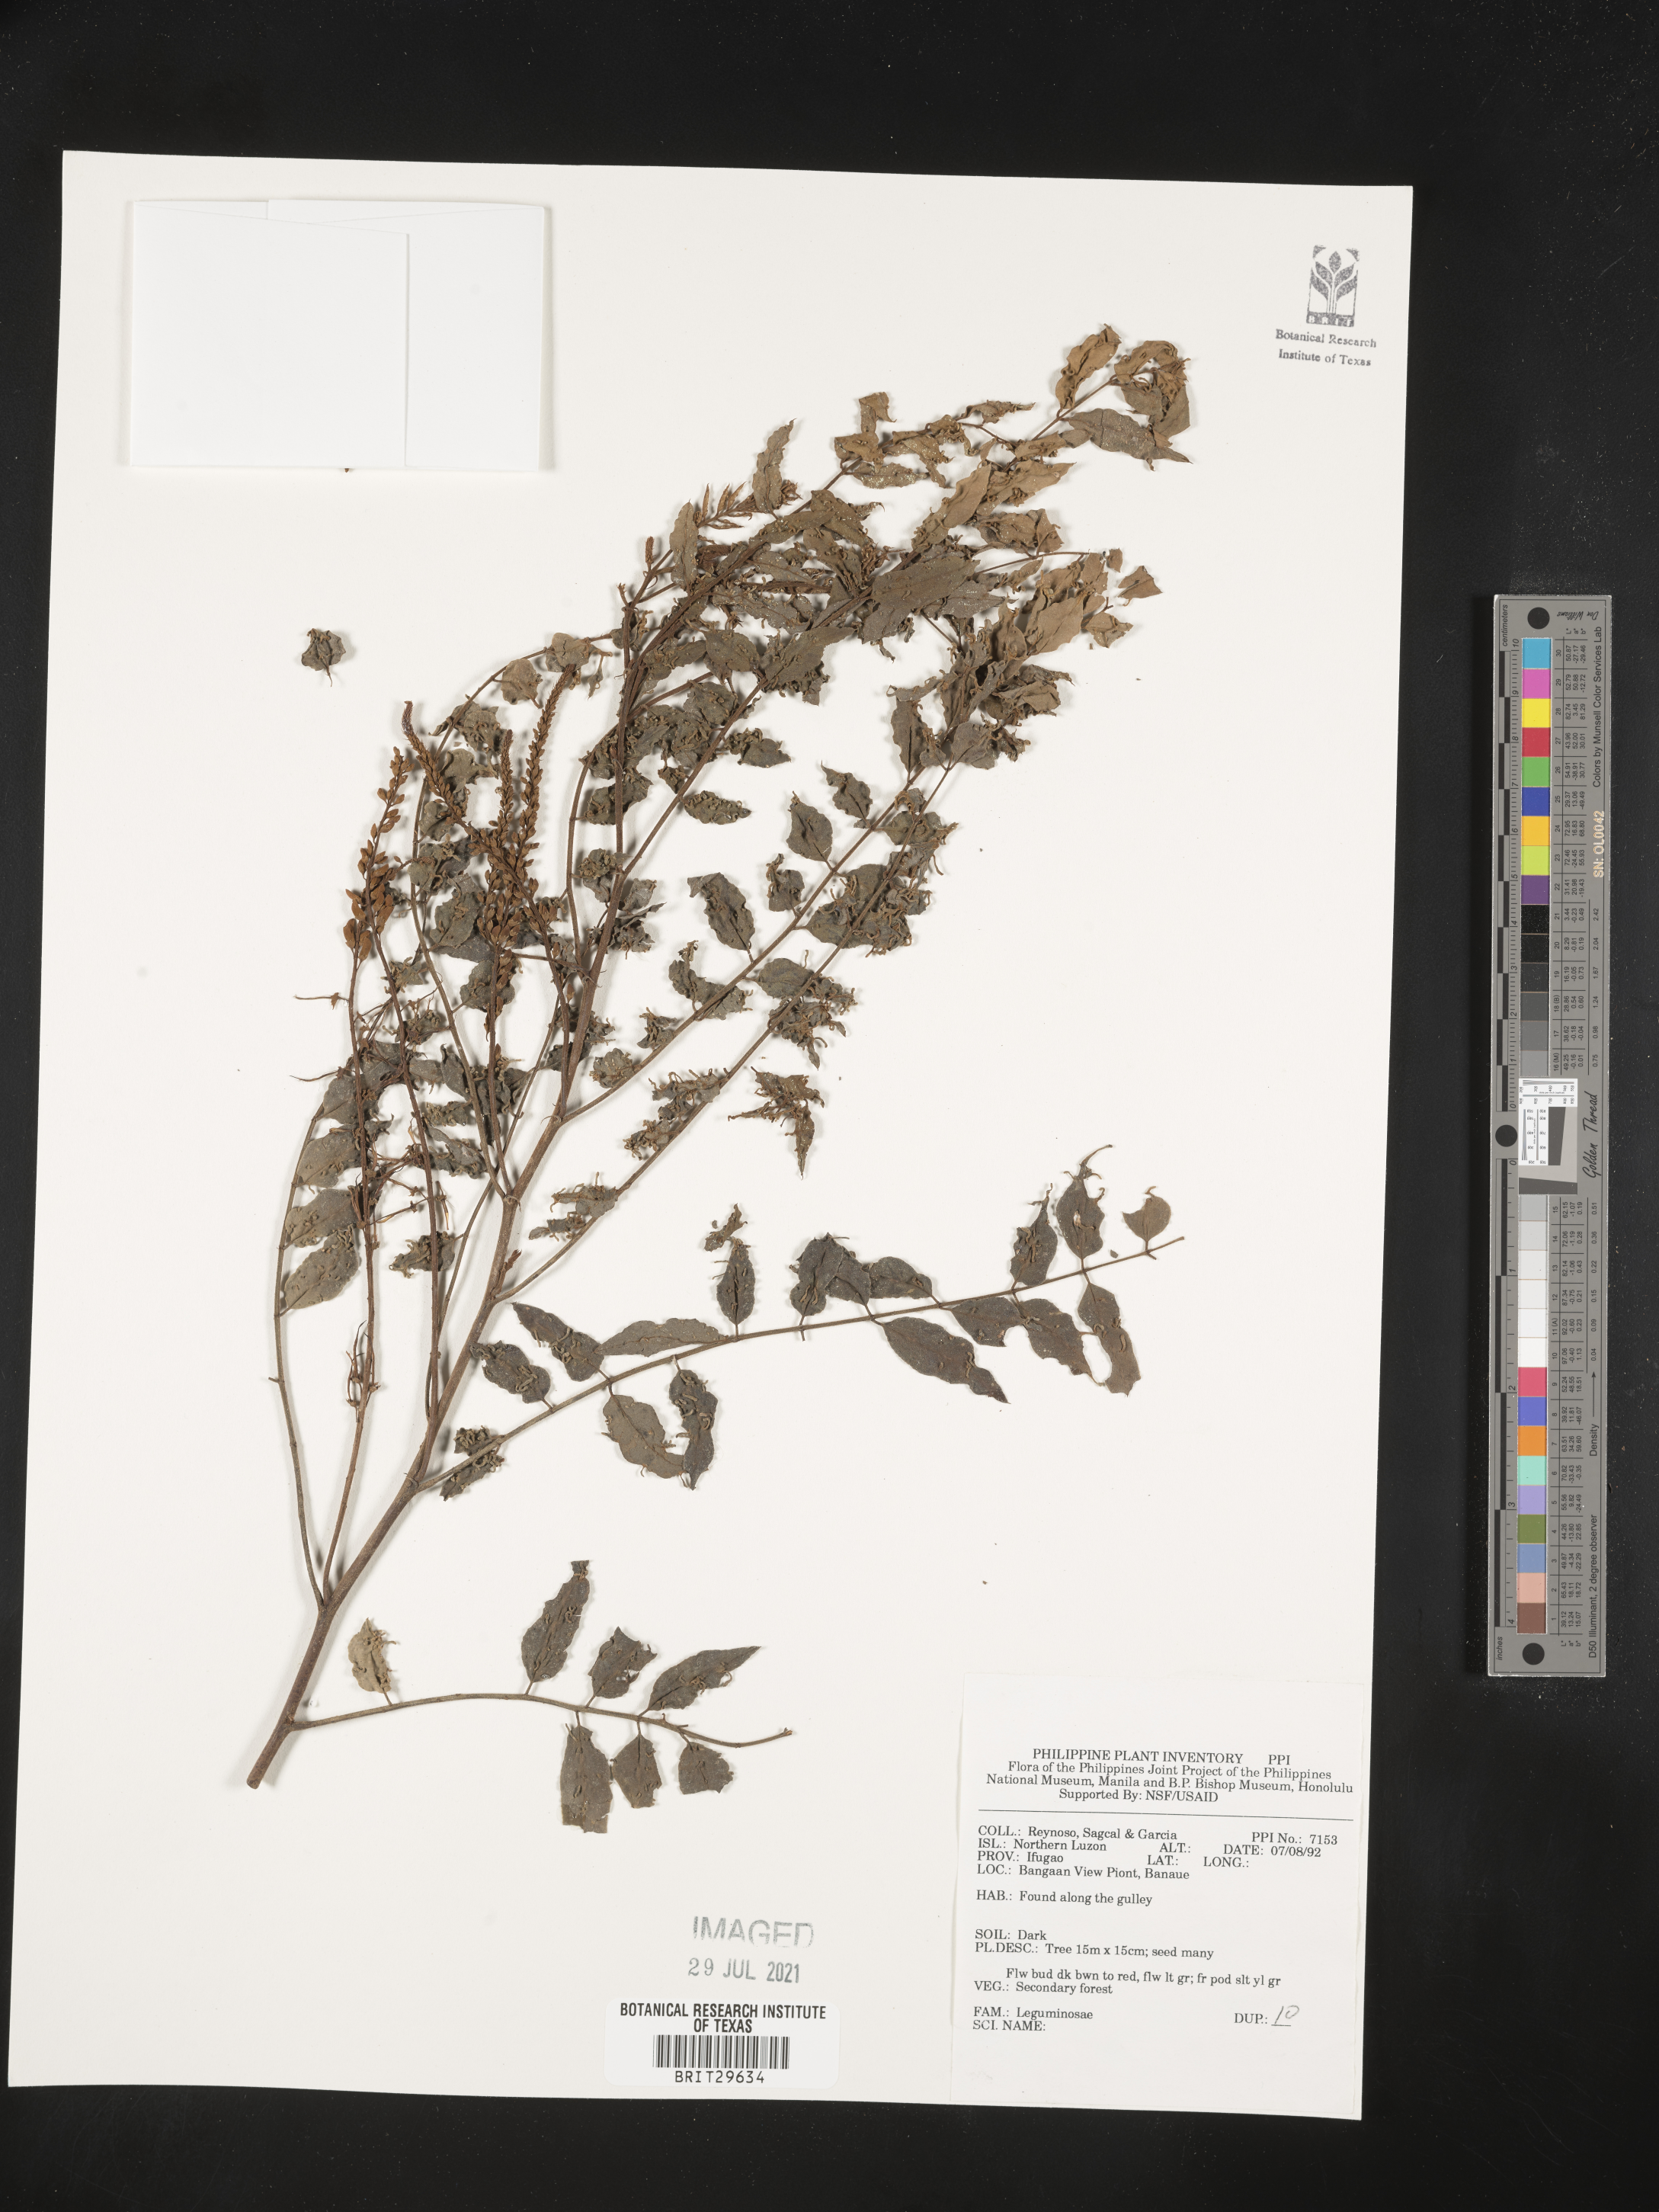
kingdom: Plantae
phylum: Tracheophyta
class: Magnoliopsida
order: Fabales
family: Fabaceae
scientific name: Fabaceae
